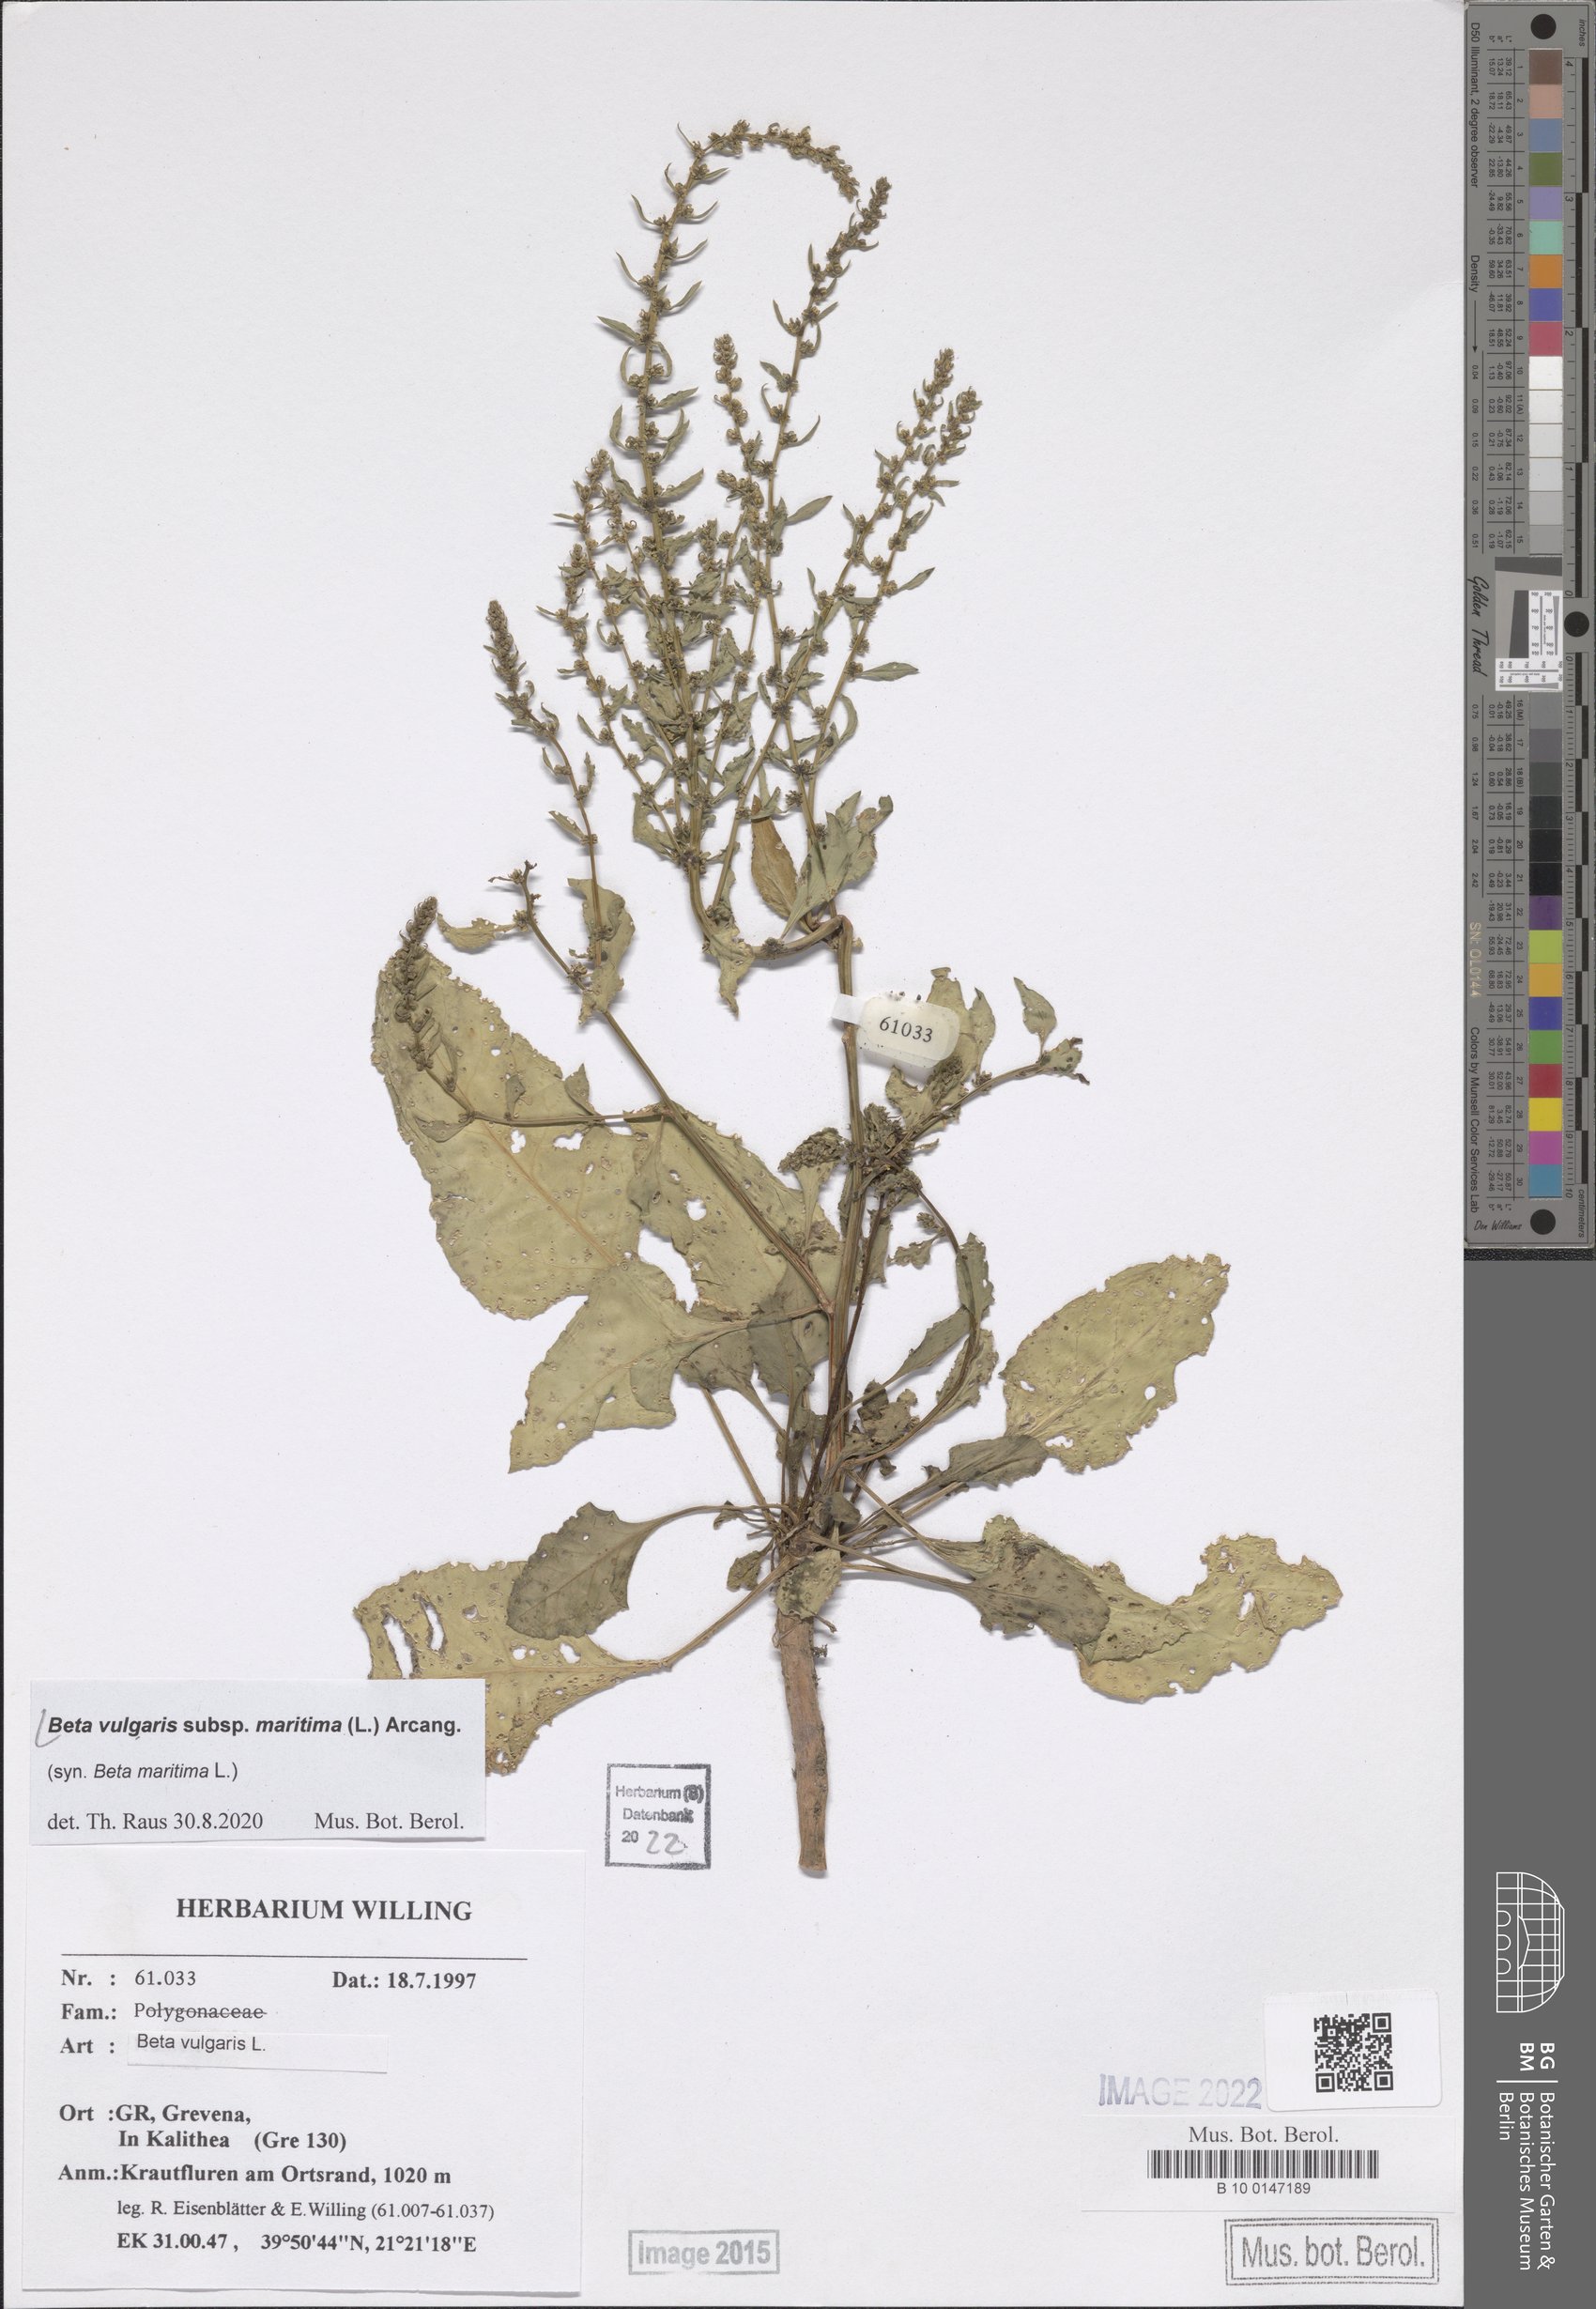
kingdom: Plantae
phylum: Tracheophyta
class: Magnoliopsida
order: Caryophyllales
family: Amaranthaceae
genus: Beta
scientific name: Beta maritima
